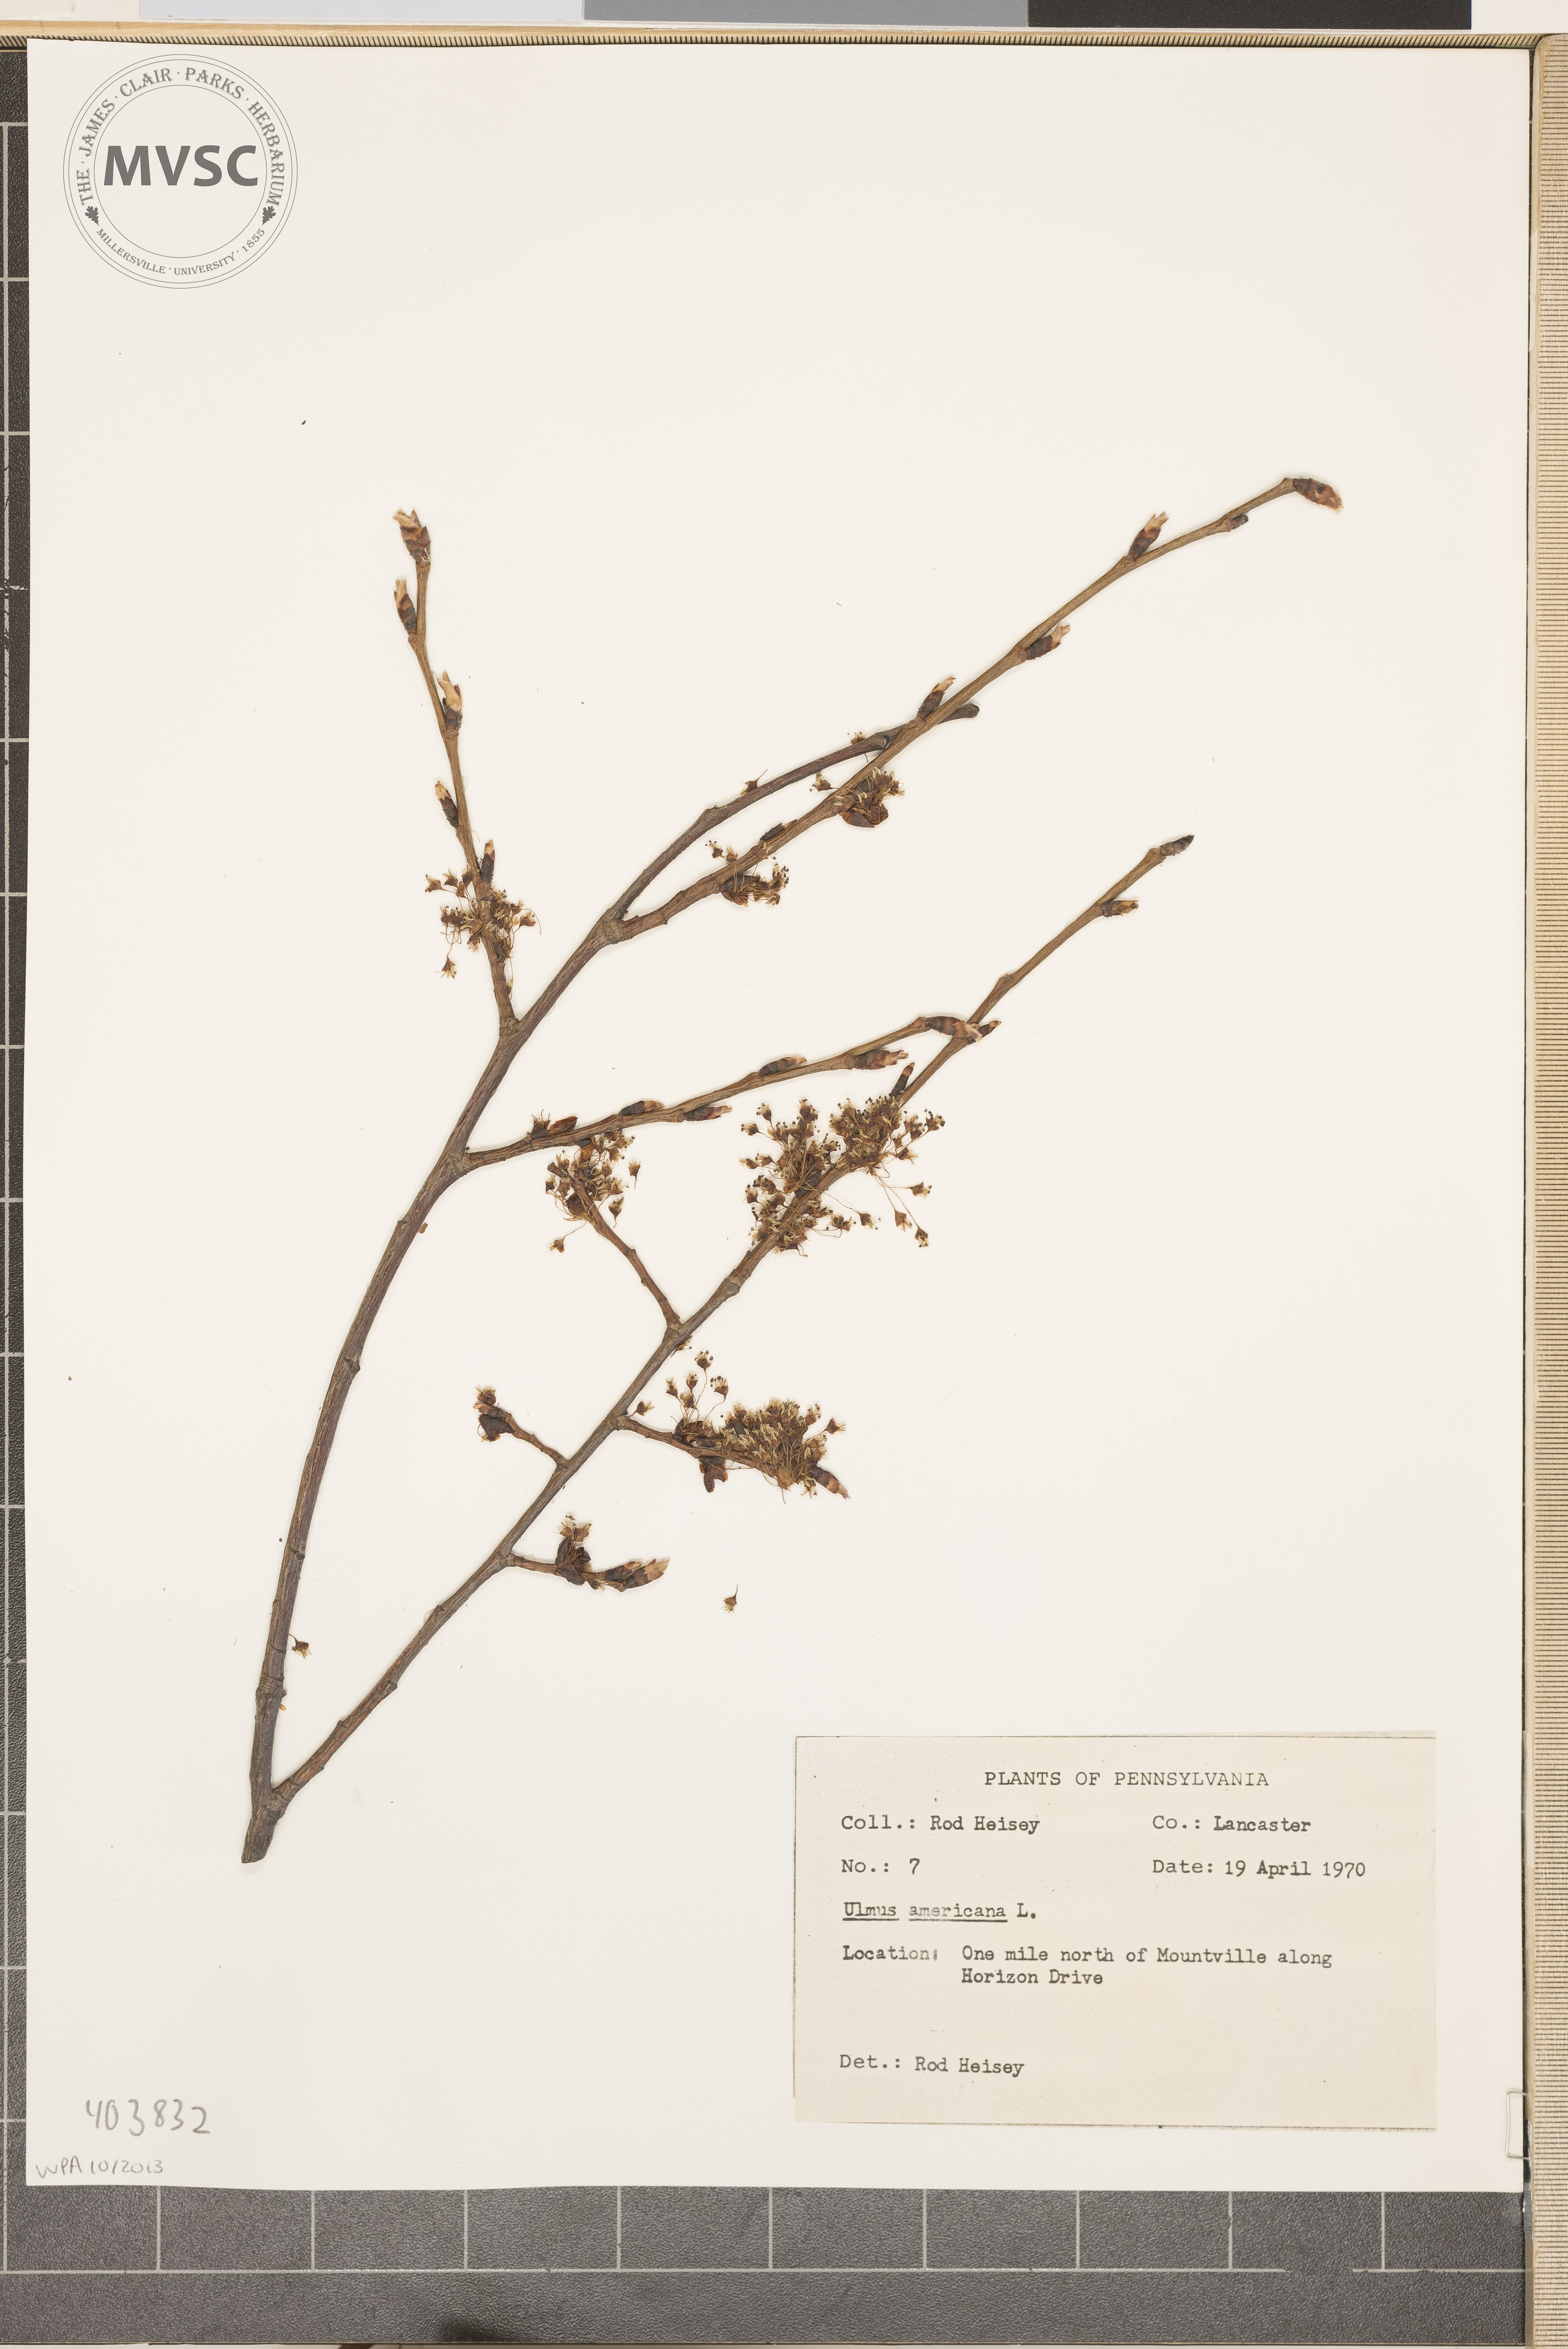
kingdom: Plantae
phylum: Tracheophyta
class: Magnoliopsida
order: Rosales
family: Ulmaceae
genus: Ulmus
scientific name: Ulmus americana
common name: American elm
